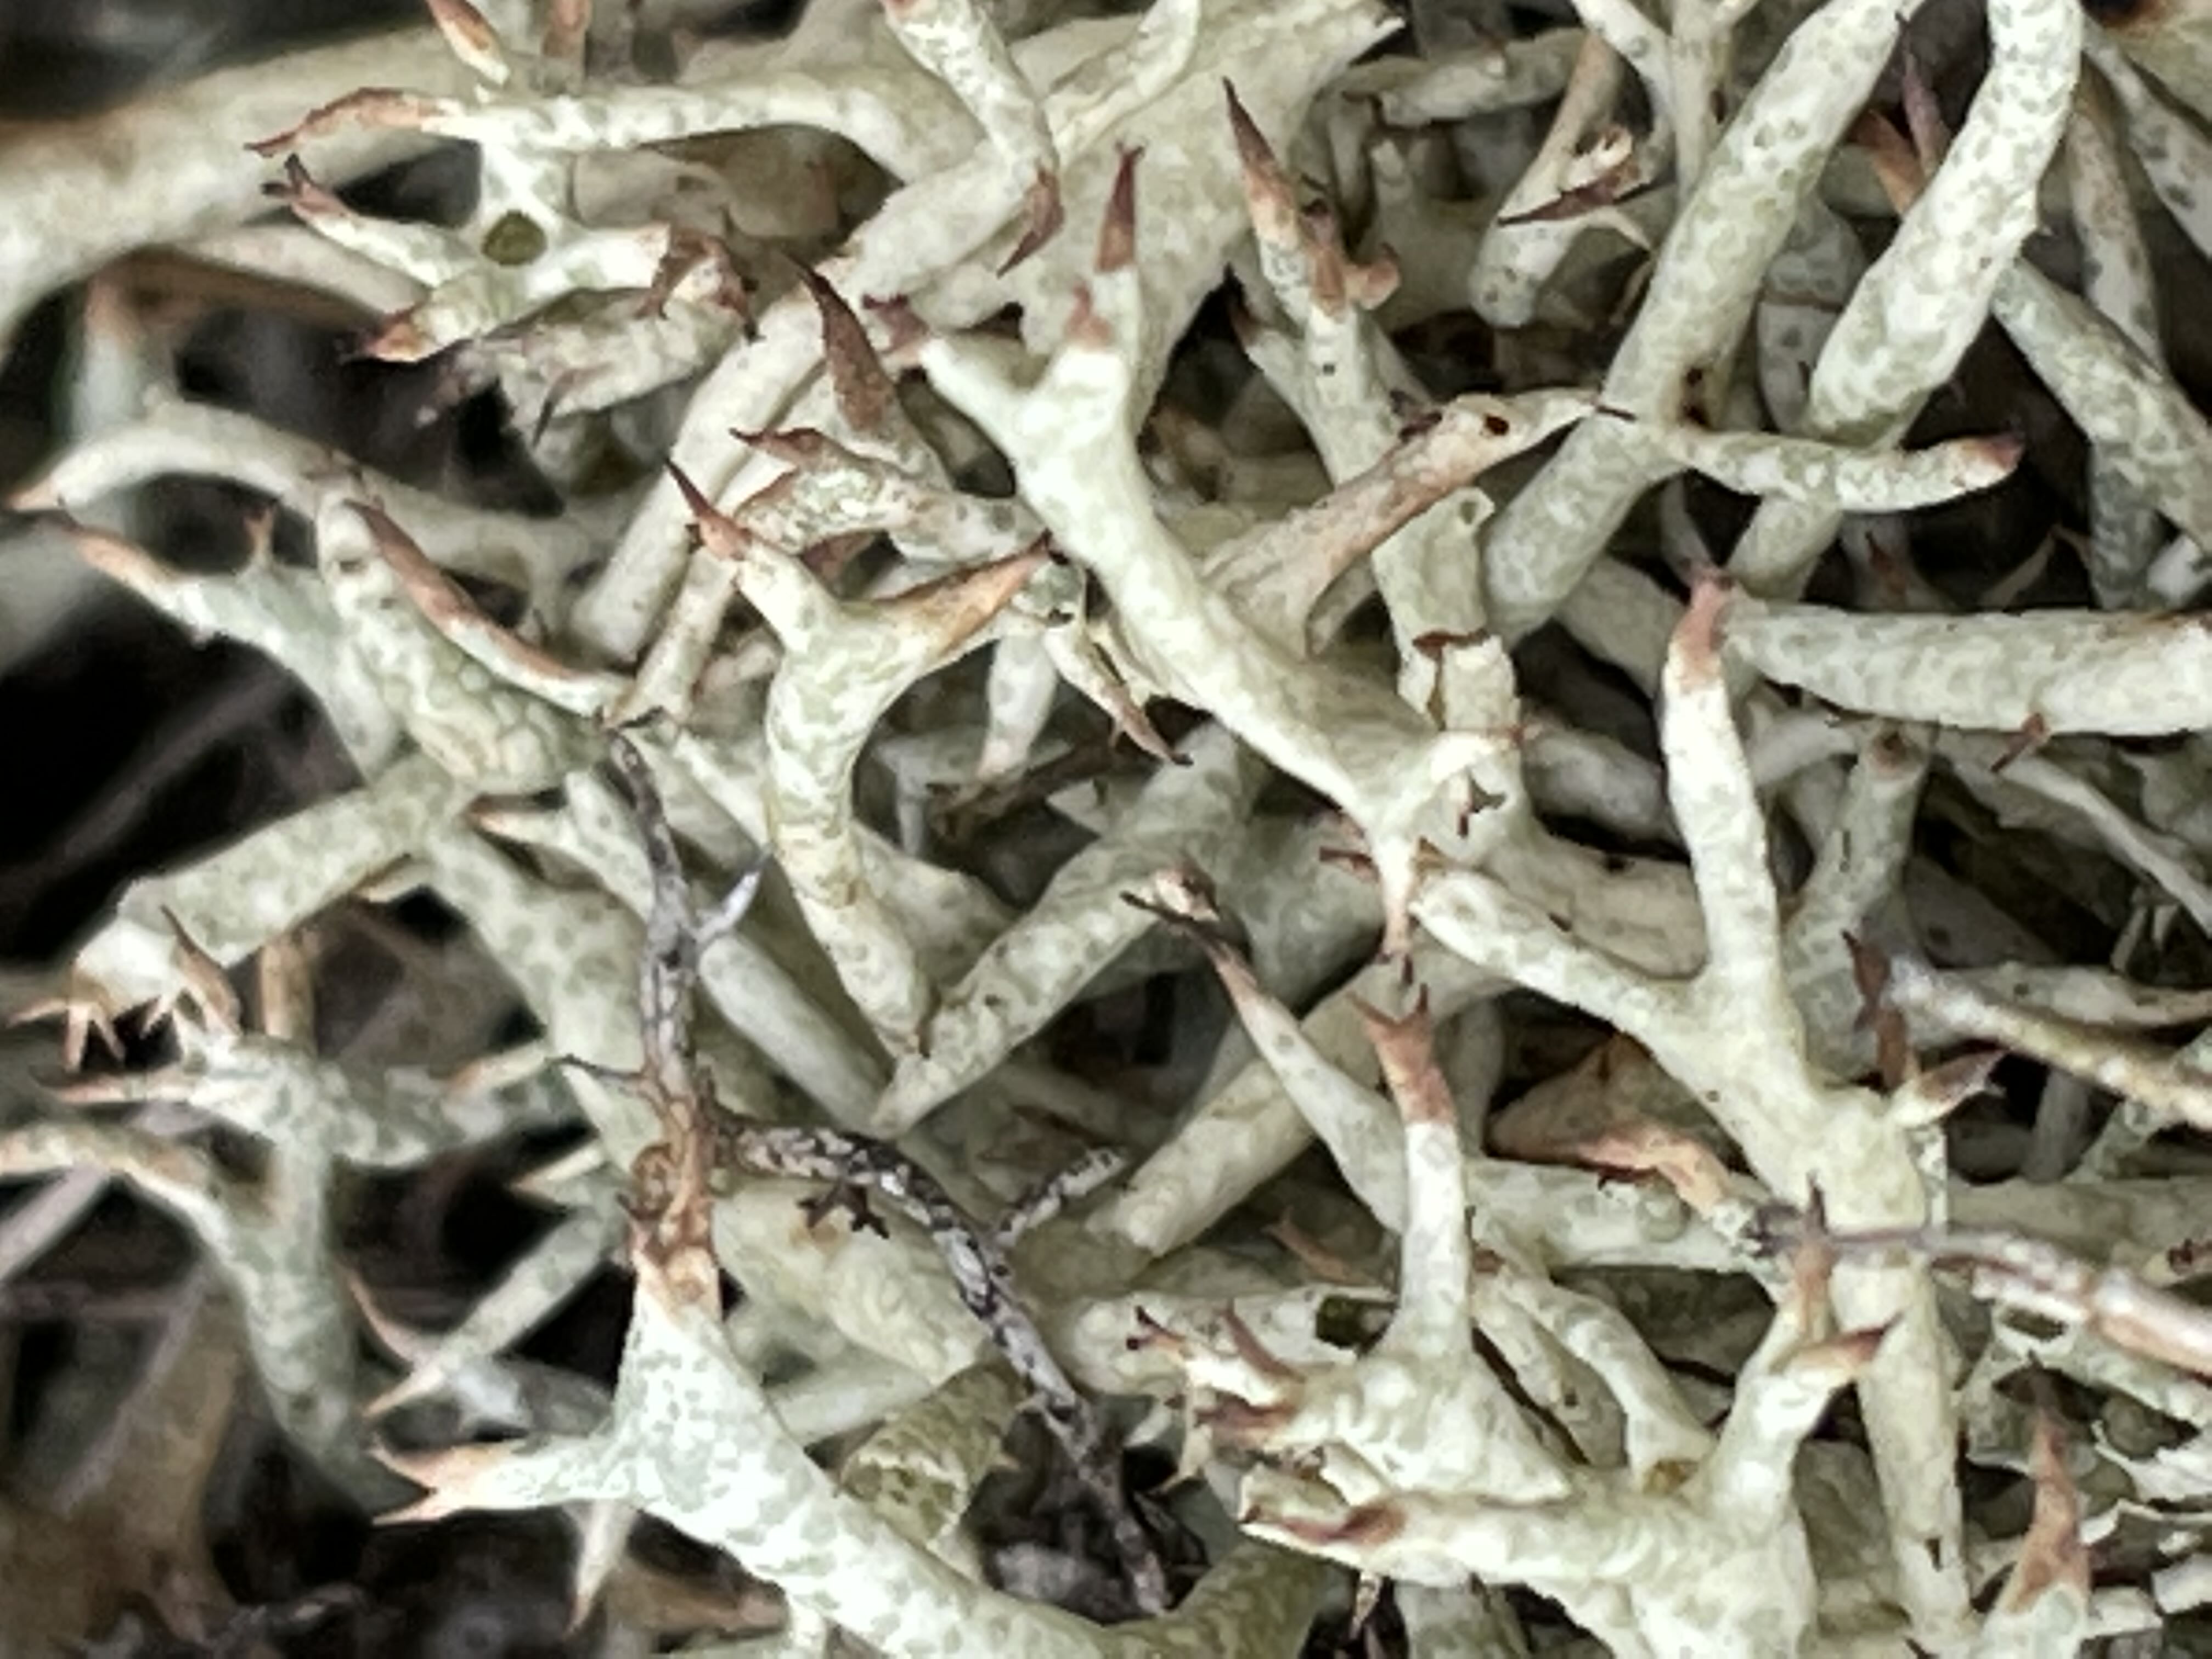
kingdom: Fungi
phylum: Ascomycota
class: Lecanoromycetes
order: Lecanorales
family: Cladoniaceae
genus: Cladonia
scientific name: Cladonia uncialis
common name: pigget bægerlav
